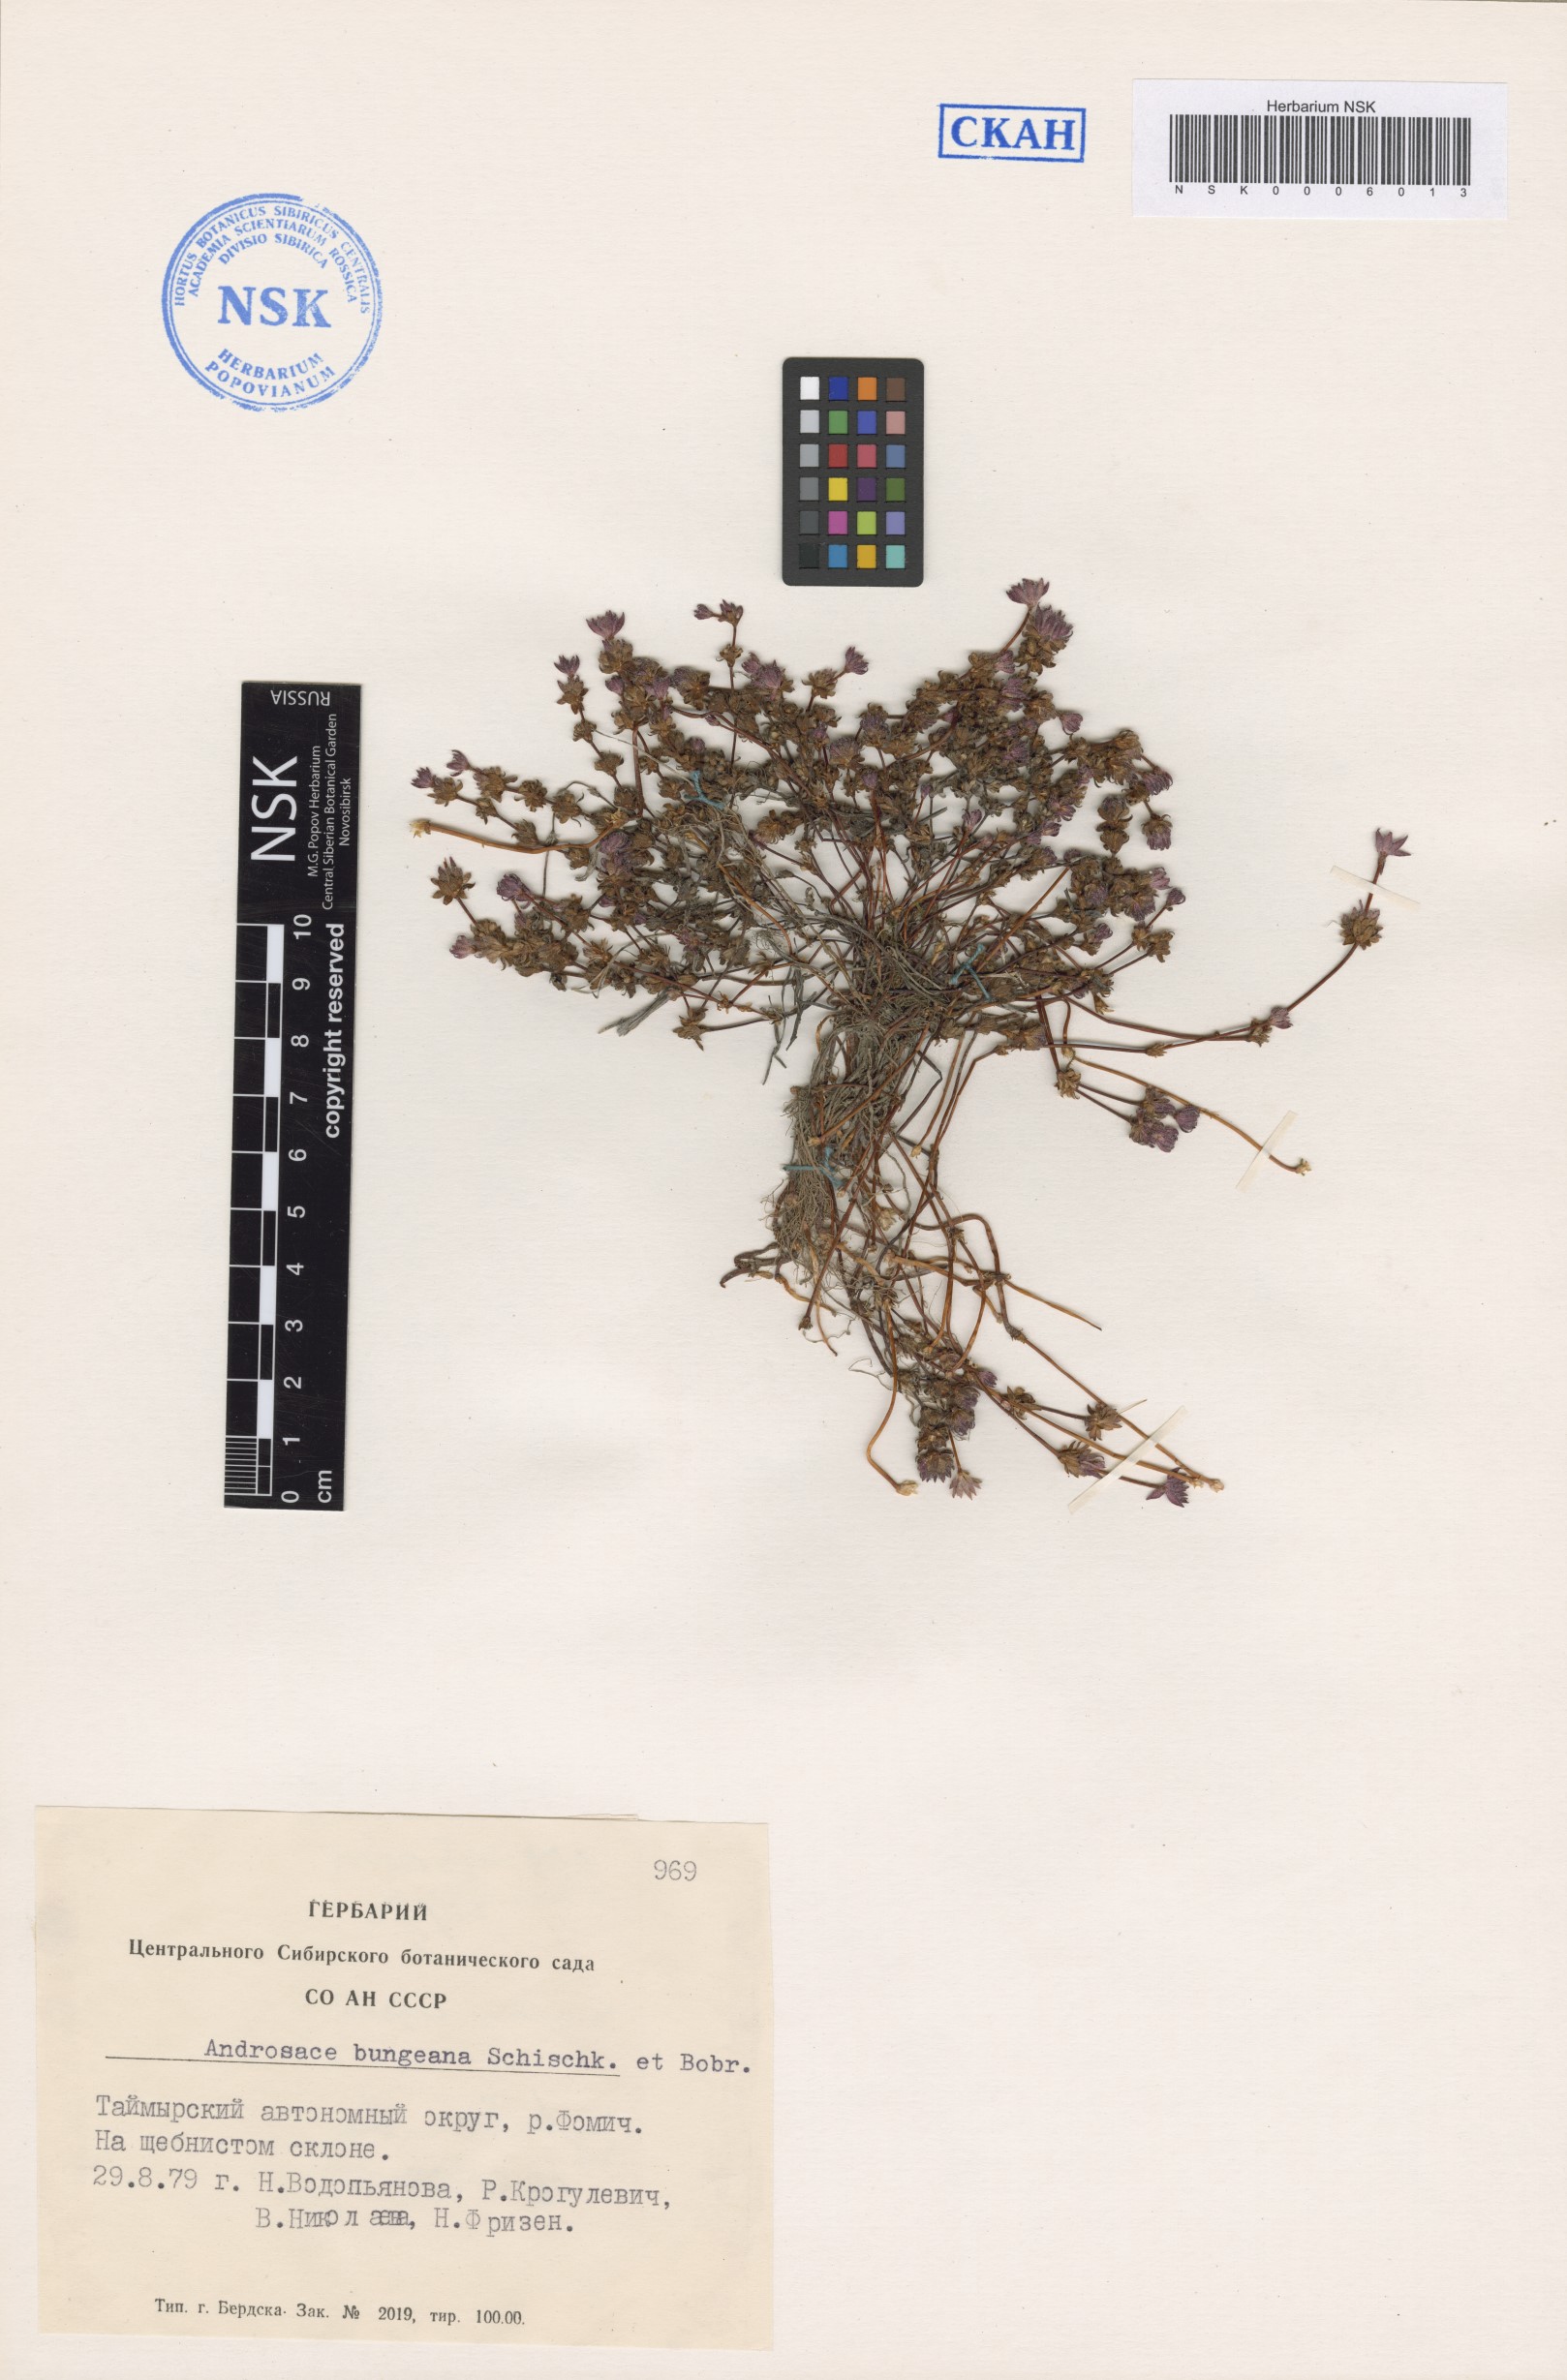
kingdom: Plantae
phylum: Tracheophyta
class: Magnoliopsida
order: Ericales
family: Primulaceae
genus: Androsace
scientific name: Androsace bungeana
